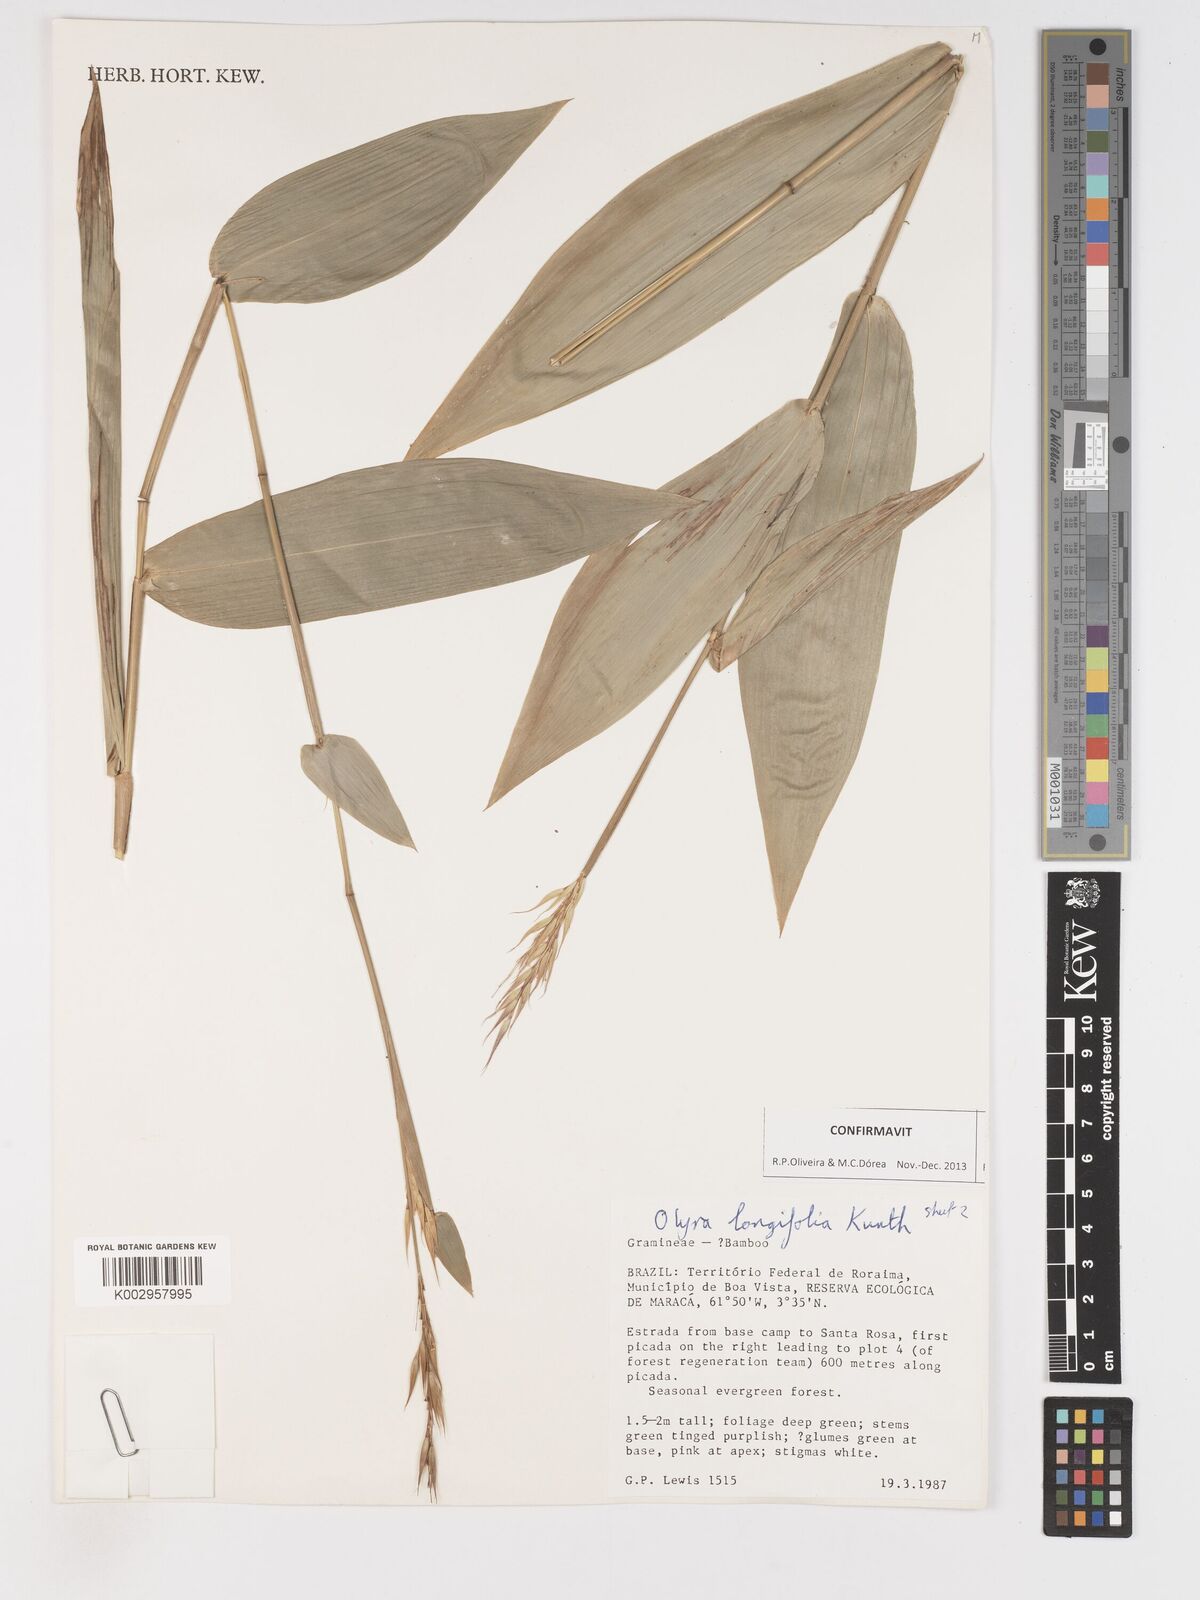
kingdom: Plantae
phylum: Tracheophyta
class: Liliopsida
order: Poales
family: Poaceae
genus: Olyra
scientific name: Olyra longifolia
